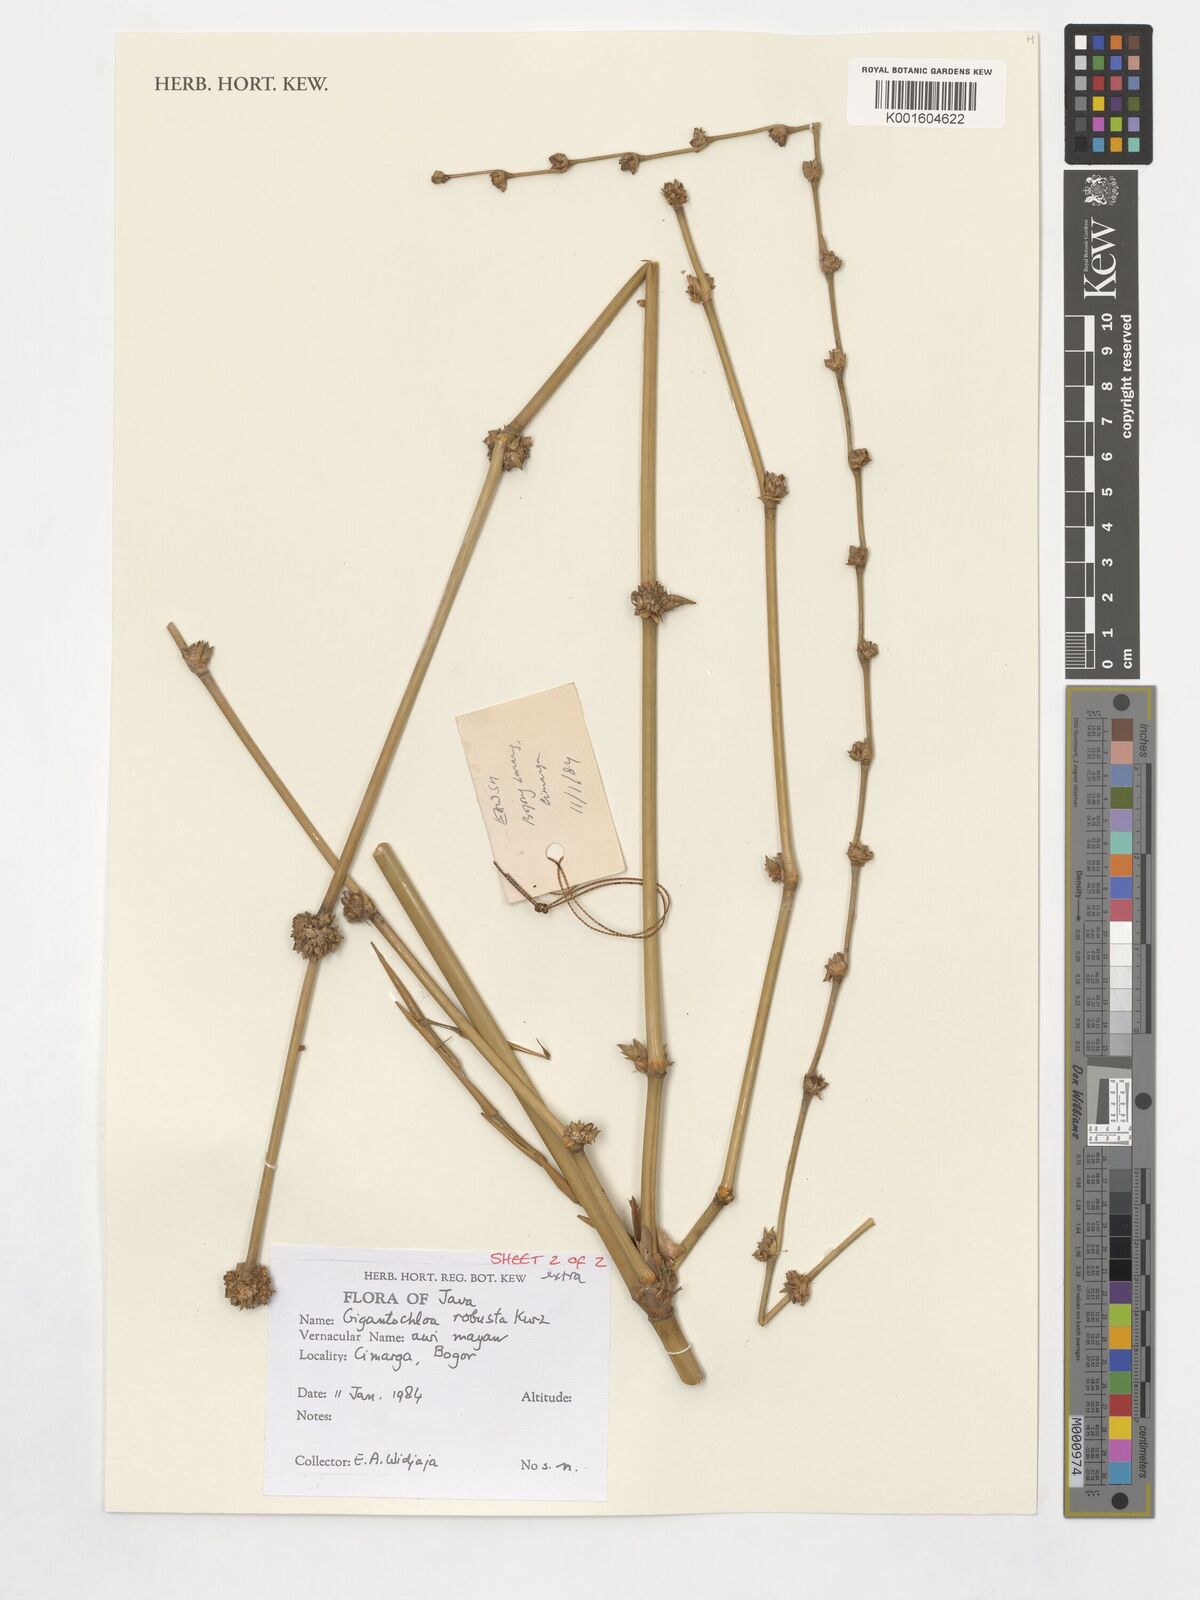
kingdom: Plantae
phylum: Tracheophyta
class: Liliopsida
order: Poales
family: Poaceae
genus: Gigantochloa
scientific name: Gigantochloa robusta
